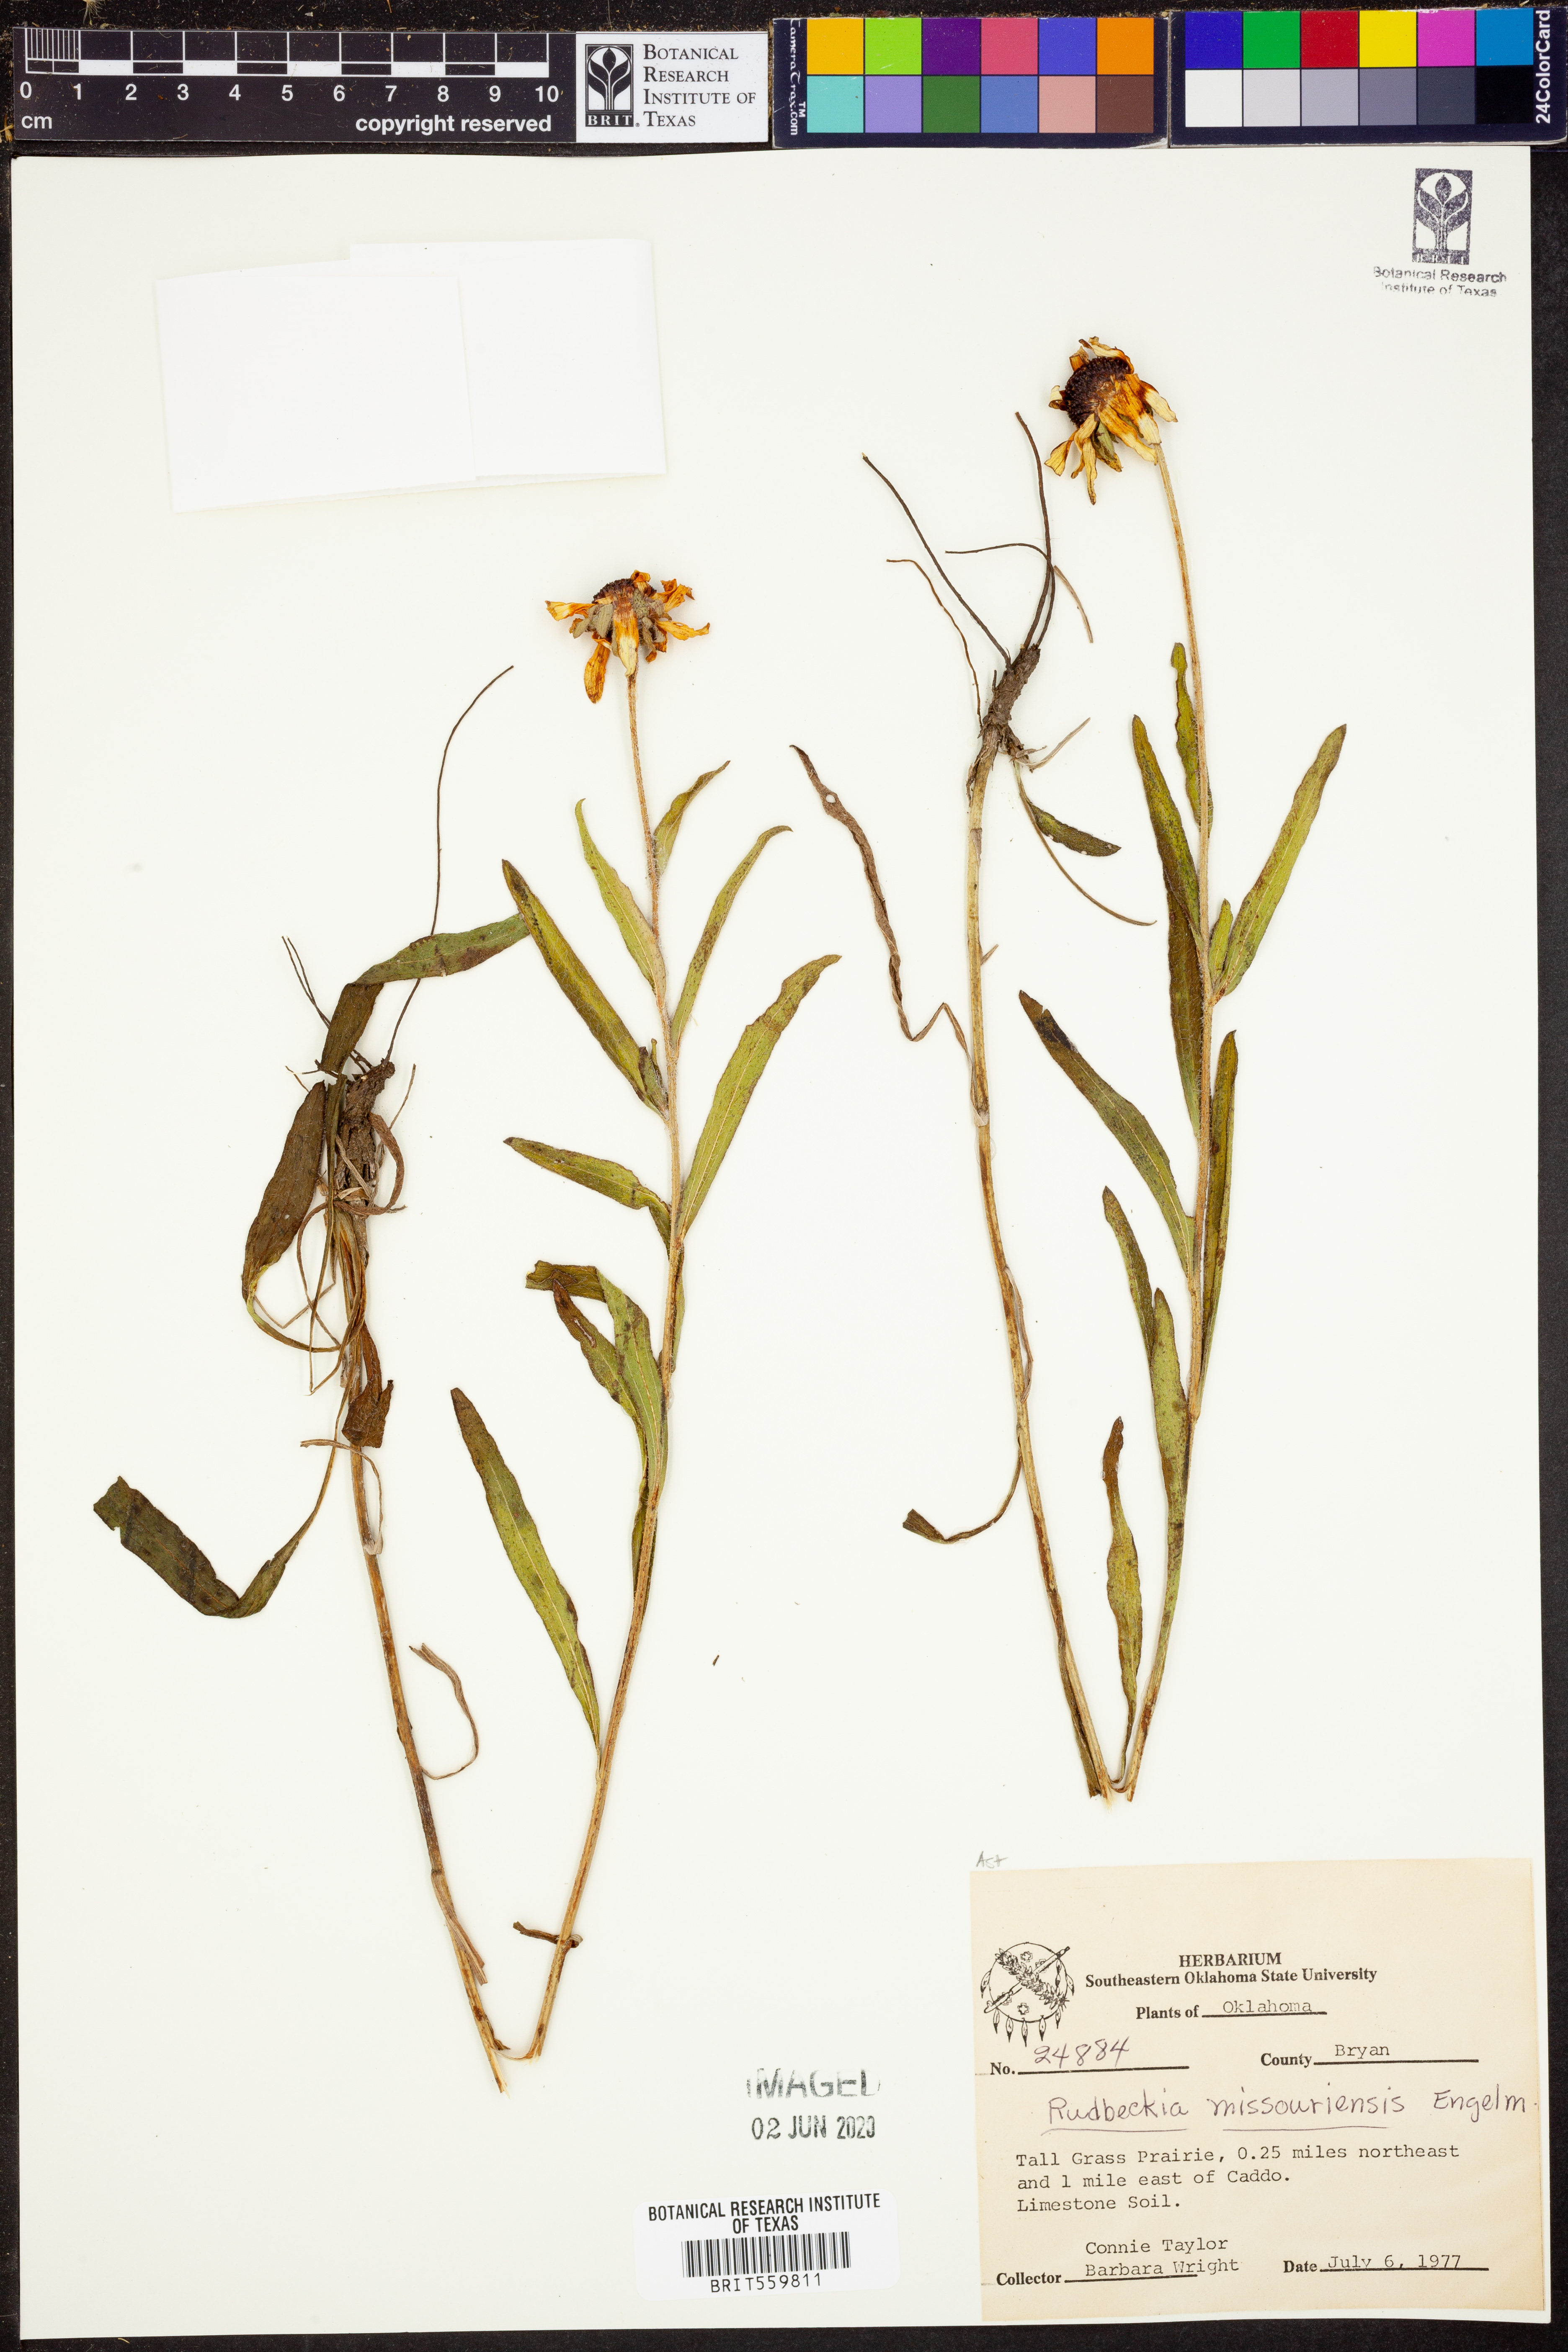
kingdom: Plantae
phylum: Tracheophyta
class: Magnoliopsida
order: Asterales
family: Asteraceae
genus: Rudbeckia
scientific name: Rudbeckia missouriensis
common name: Missouri coneflower
